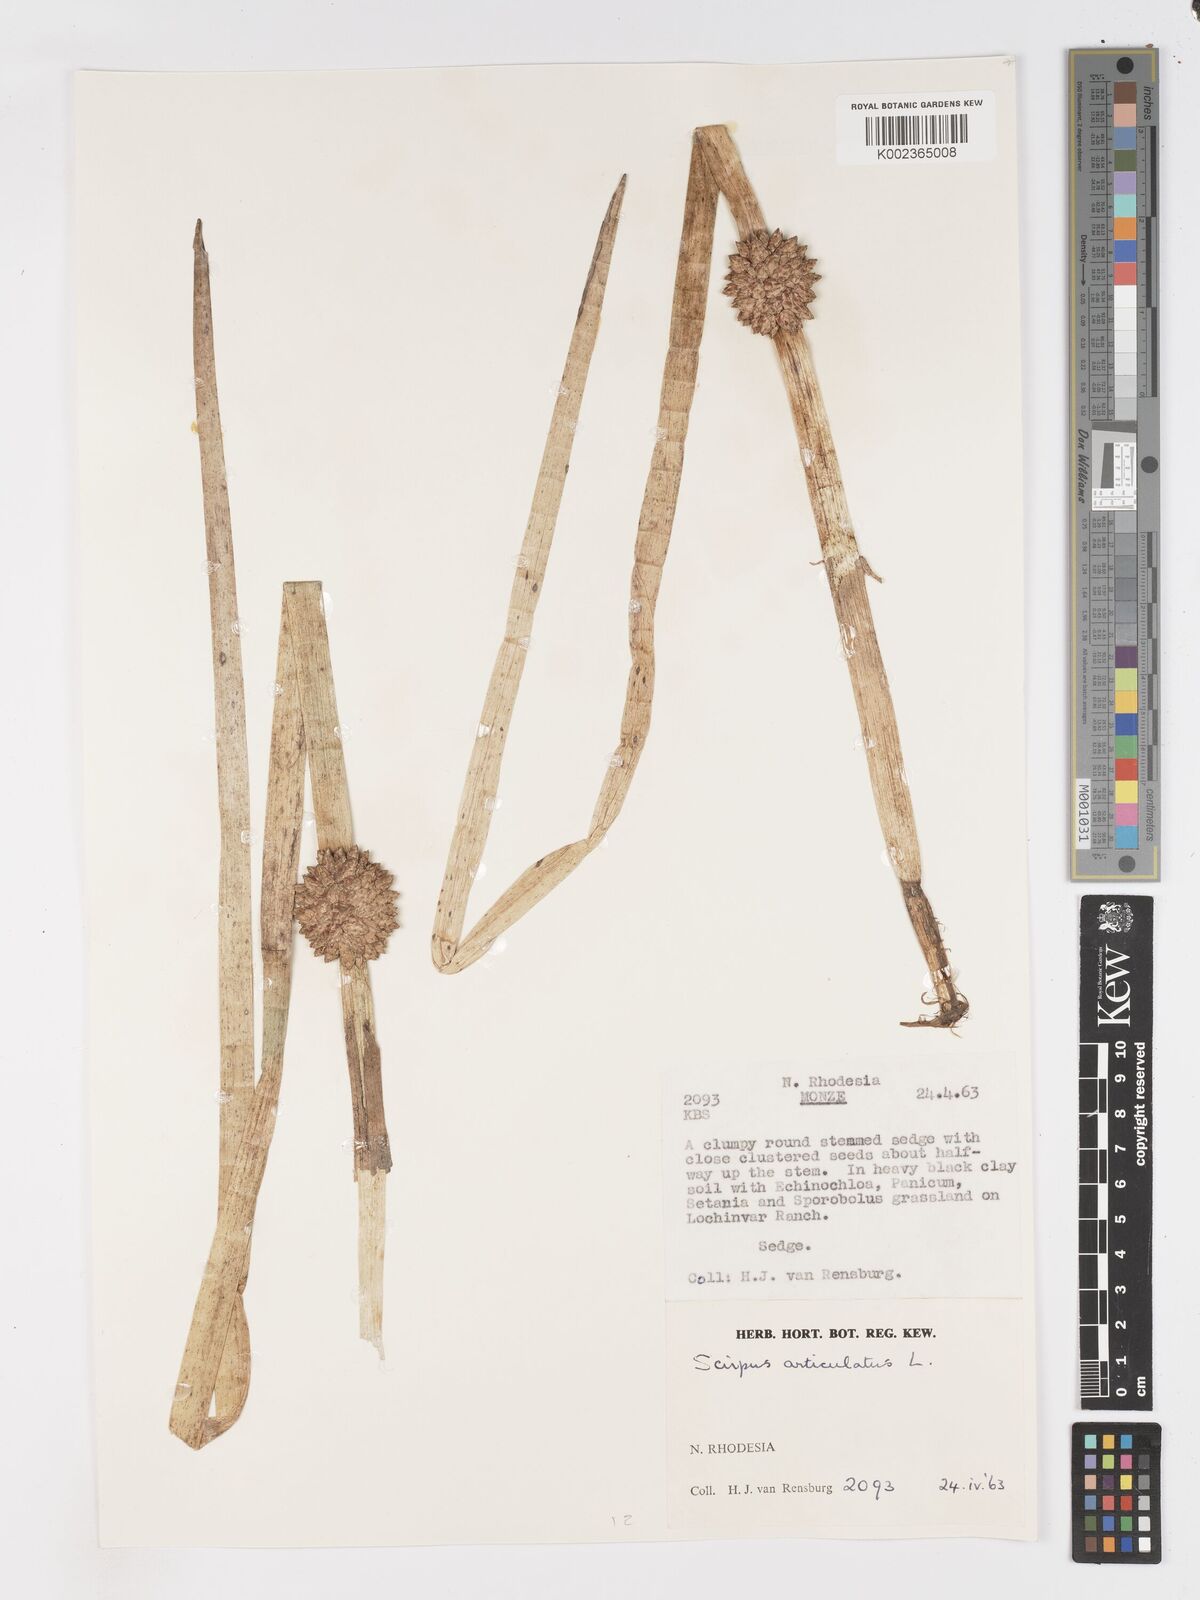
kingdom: Plantae
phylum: Tracheophyta
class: Liliopsida
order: Poales
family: Cyperaceae
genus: Schoenoplectiella
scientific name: Schoenoplectiella articulata
